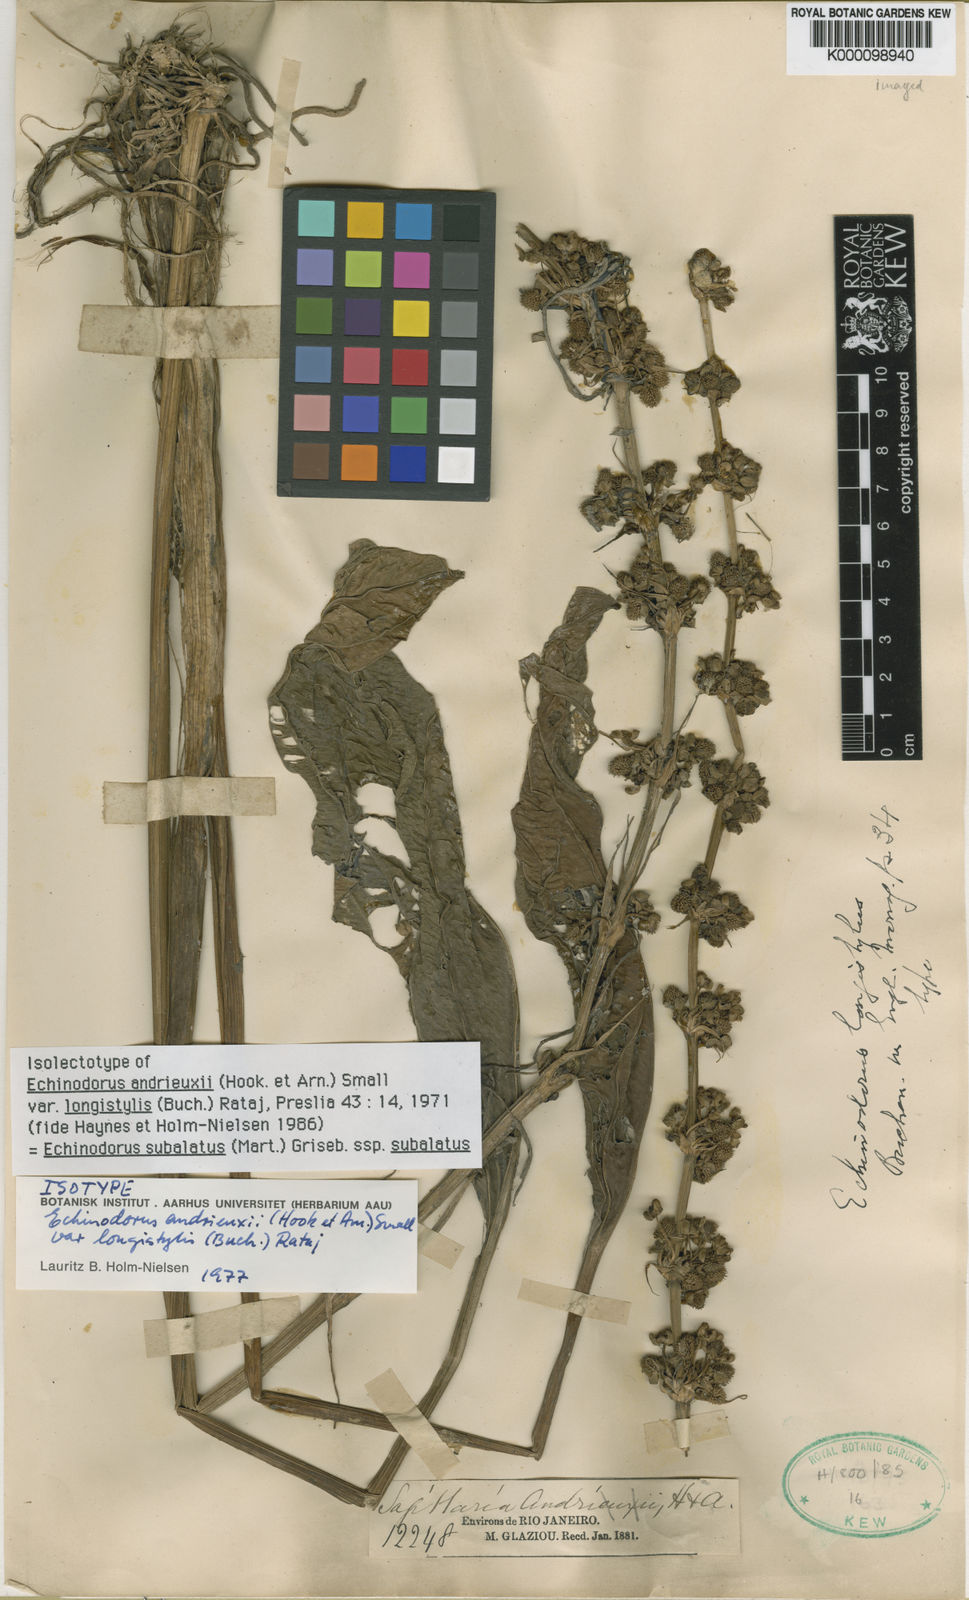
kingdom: Plantae
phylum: Tracheophyta
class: Liliopsida
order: Alismatales
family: Alismataceae
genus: Aquarius
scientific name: Aquarius subulatus
